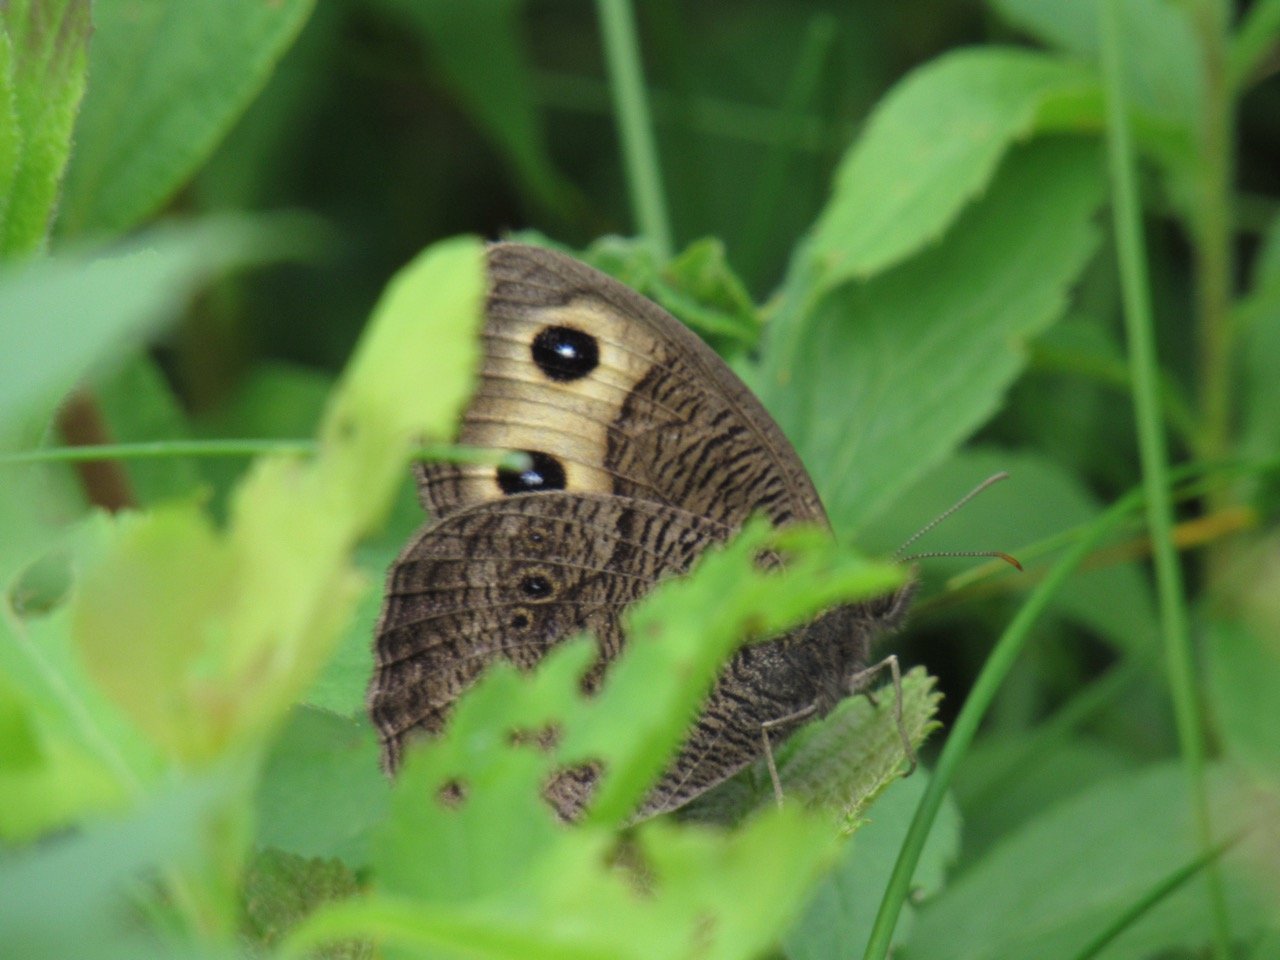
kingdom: Animalia
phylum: Arthropoda
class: Insecta
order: Lepidoptera
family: Nymphalidae
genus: Cercyonis
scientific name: Cercyonis pegala
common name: Common Wood-Nymph
